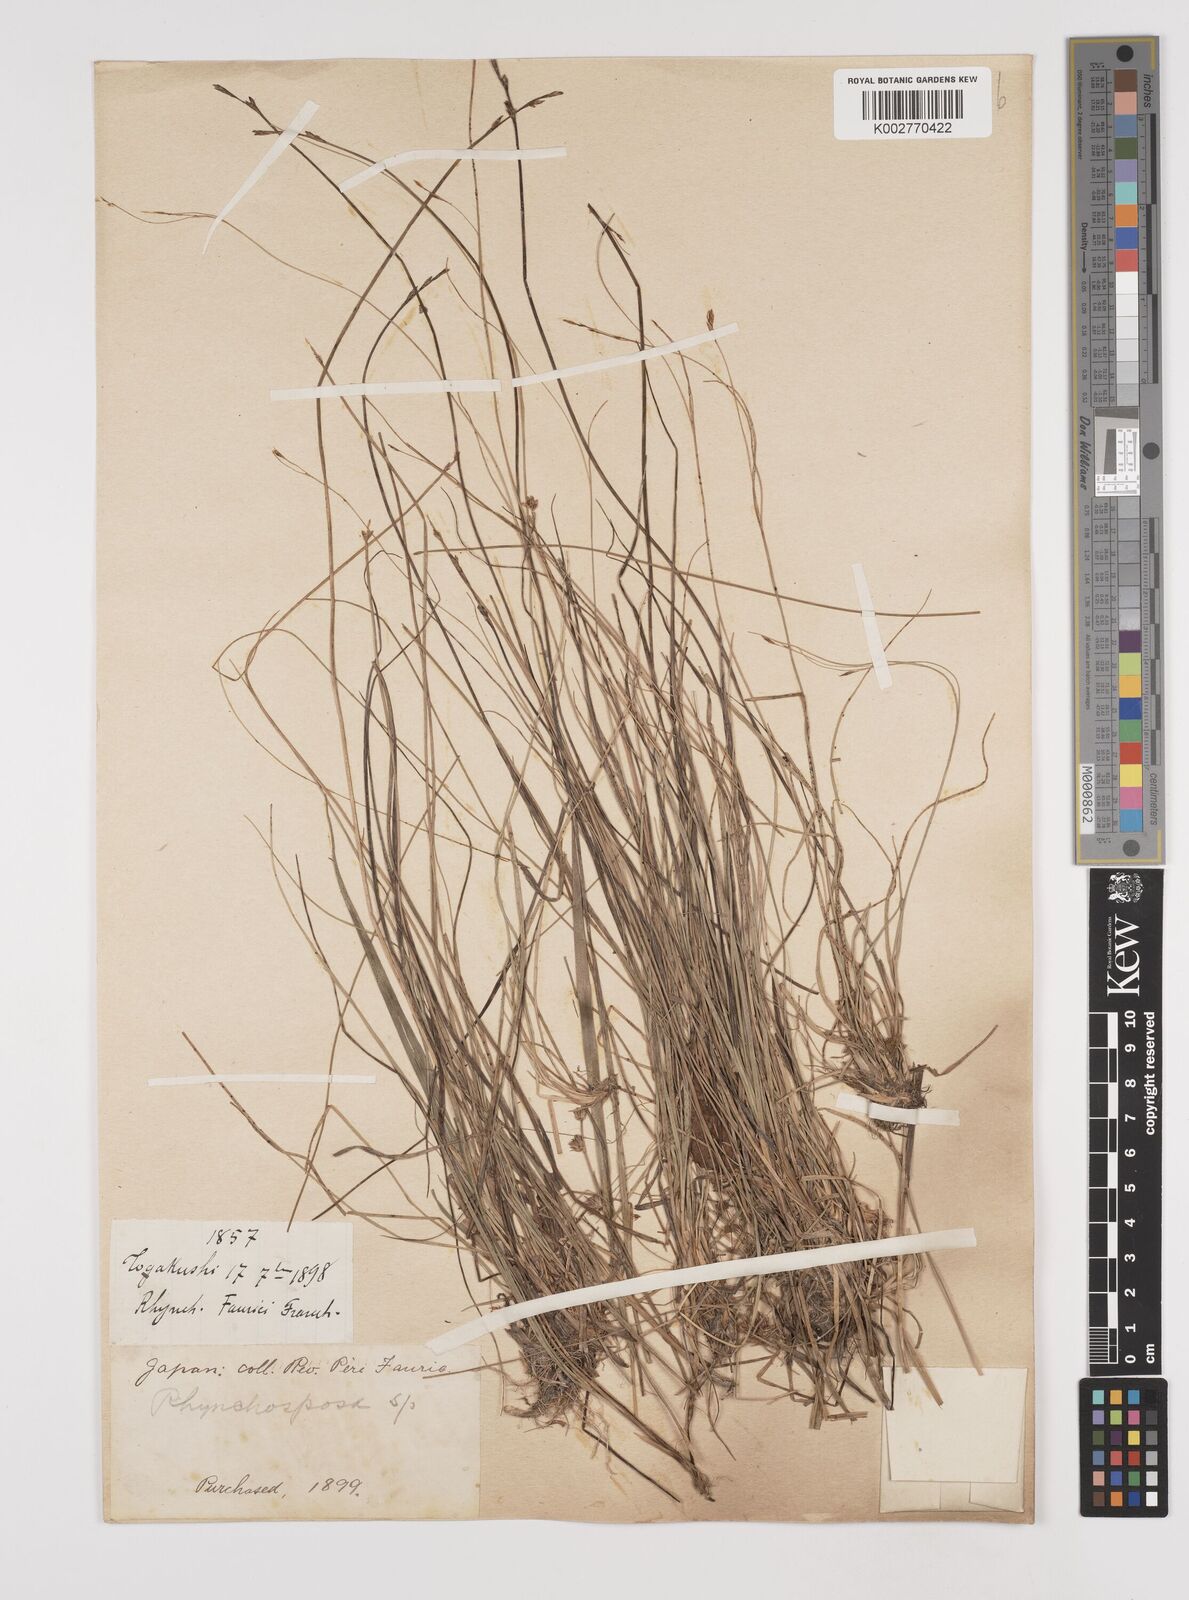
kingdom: Plantae
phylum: Tracheophyta
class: Liliopsida
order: Poales
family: Cyperaceae
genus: Rhynchospora
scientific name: Rhynchospora fauriei
